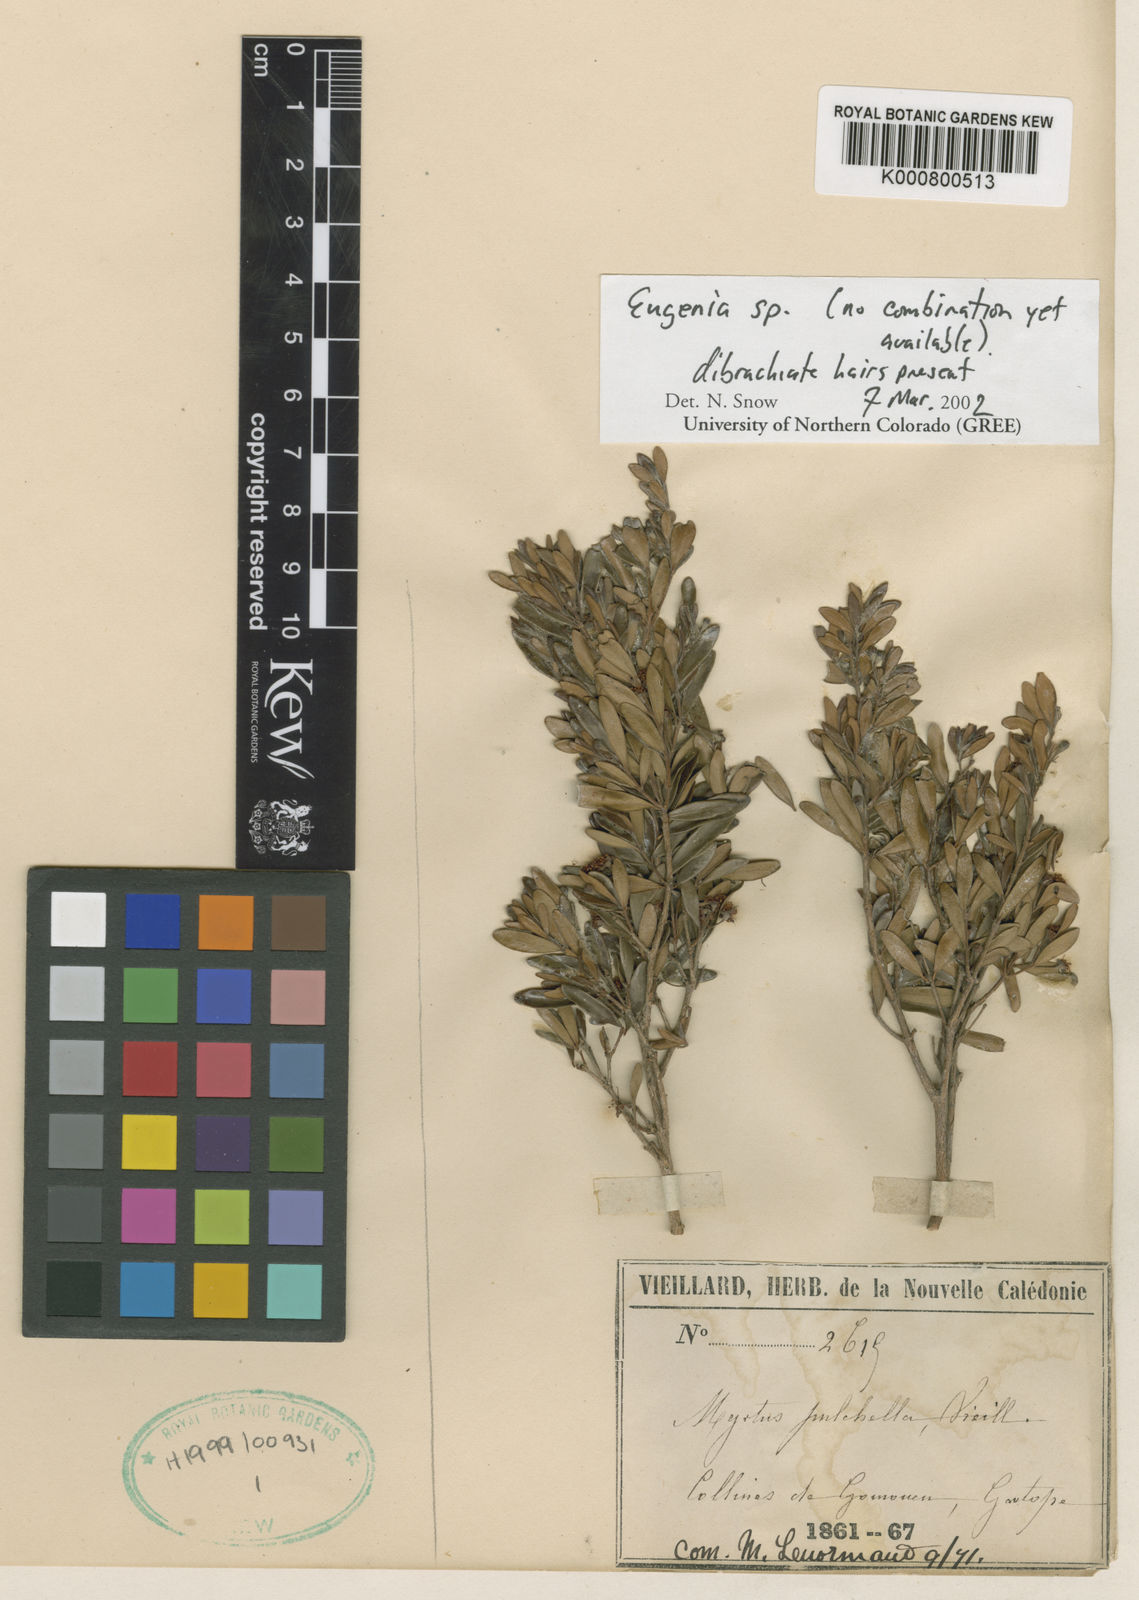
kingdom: Plantae
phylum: Tracheophyta
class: Magnoliopsida
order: Myrtales
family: Myrtaceae
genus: Myrtus
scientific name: Myrtus
